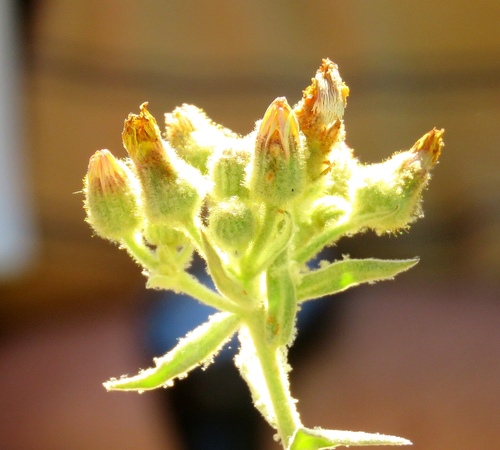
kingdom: Plantae
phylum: Tracheophyta
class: Magnoliopsida
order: Asterales
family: Asteraceae
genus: Andryala
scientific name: Andryala integrifolia
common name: Common andryala
